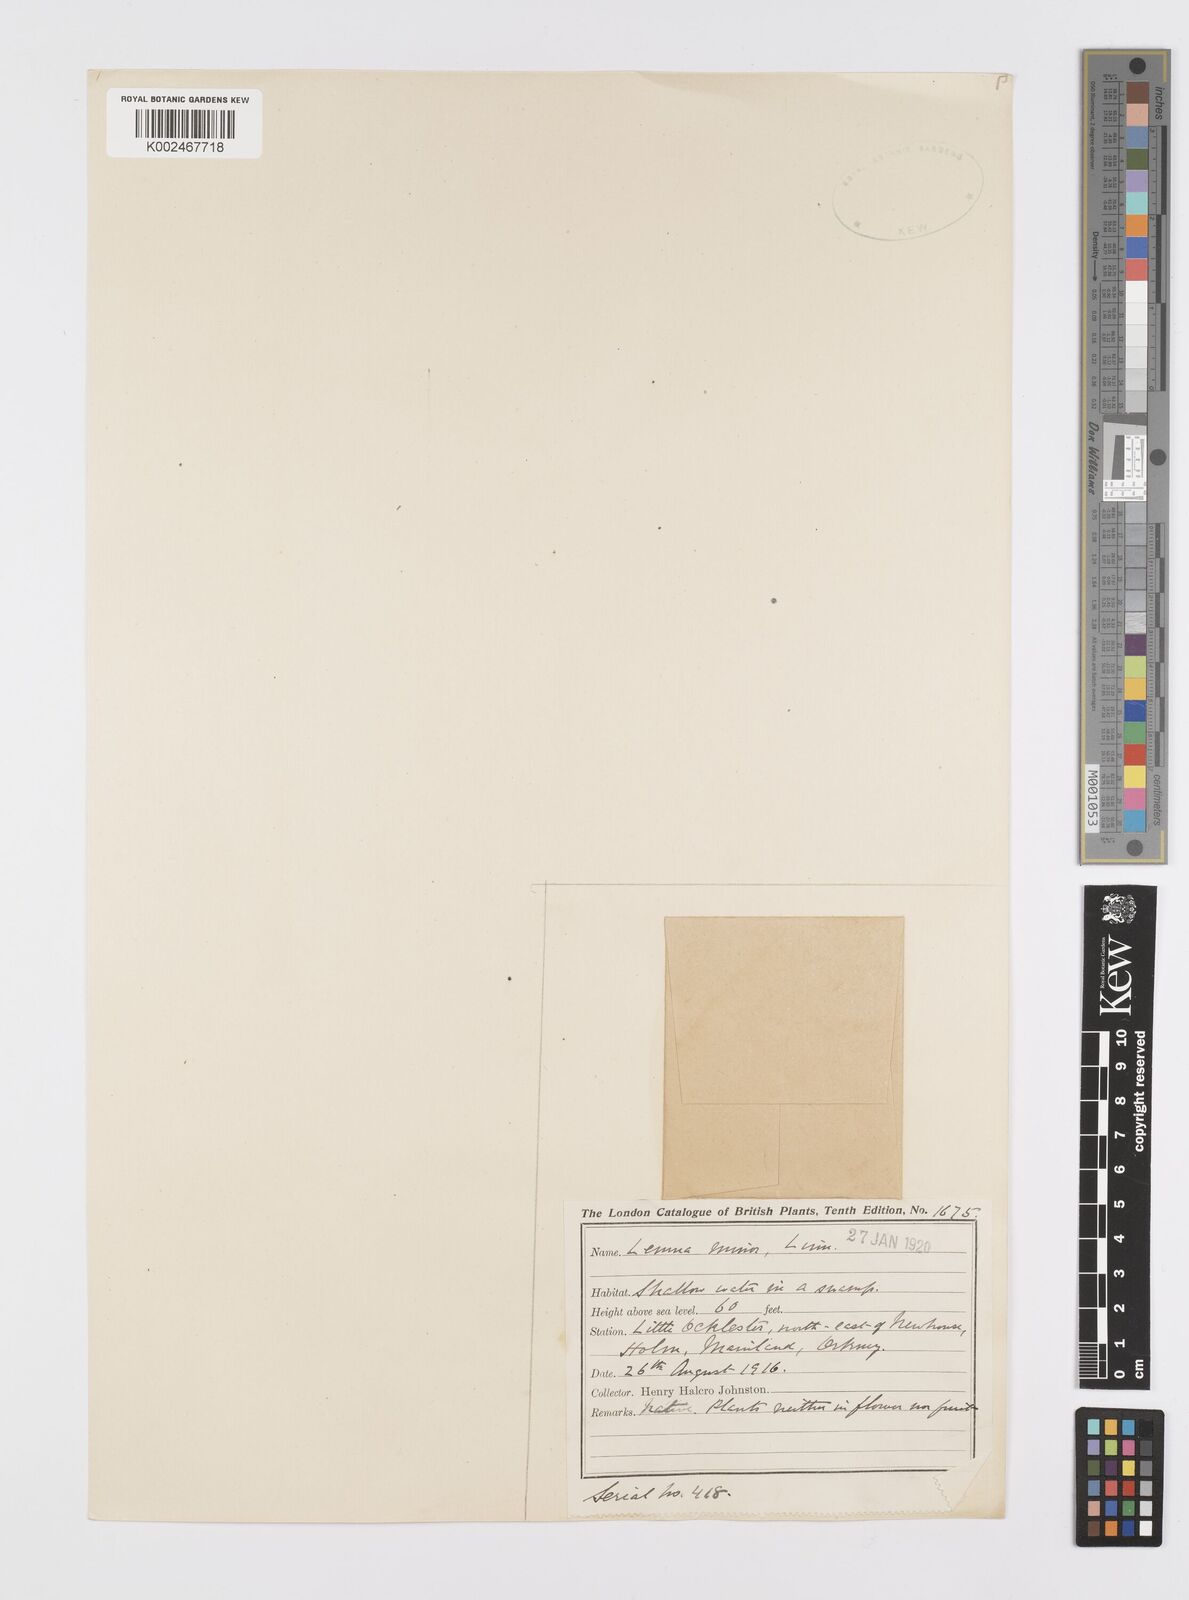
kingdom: Plantae
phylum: Tracheophyta
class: Liliopsida
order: Alismatales
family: Araceae
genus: Lemna
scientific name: Lemna minor
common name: Common duckweed
